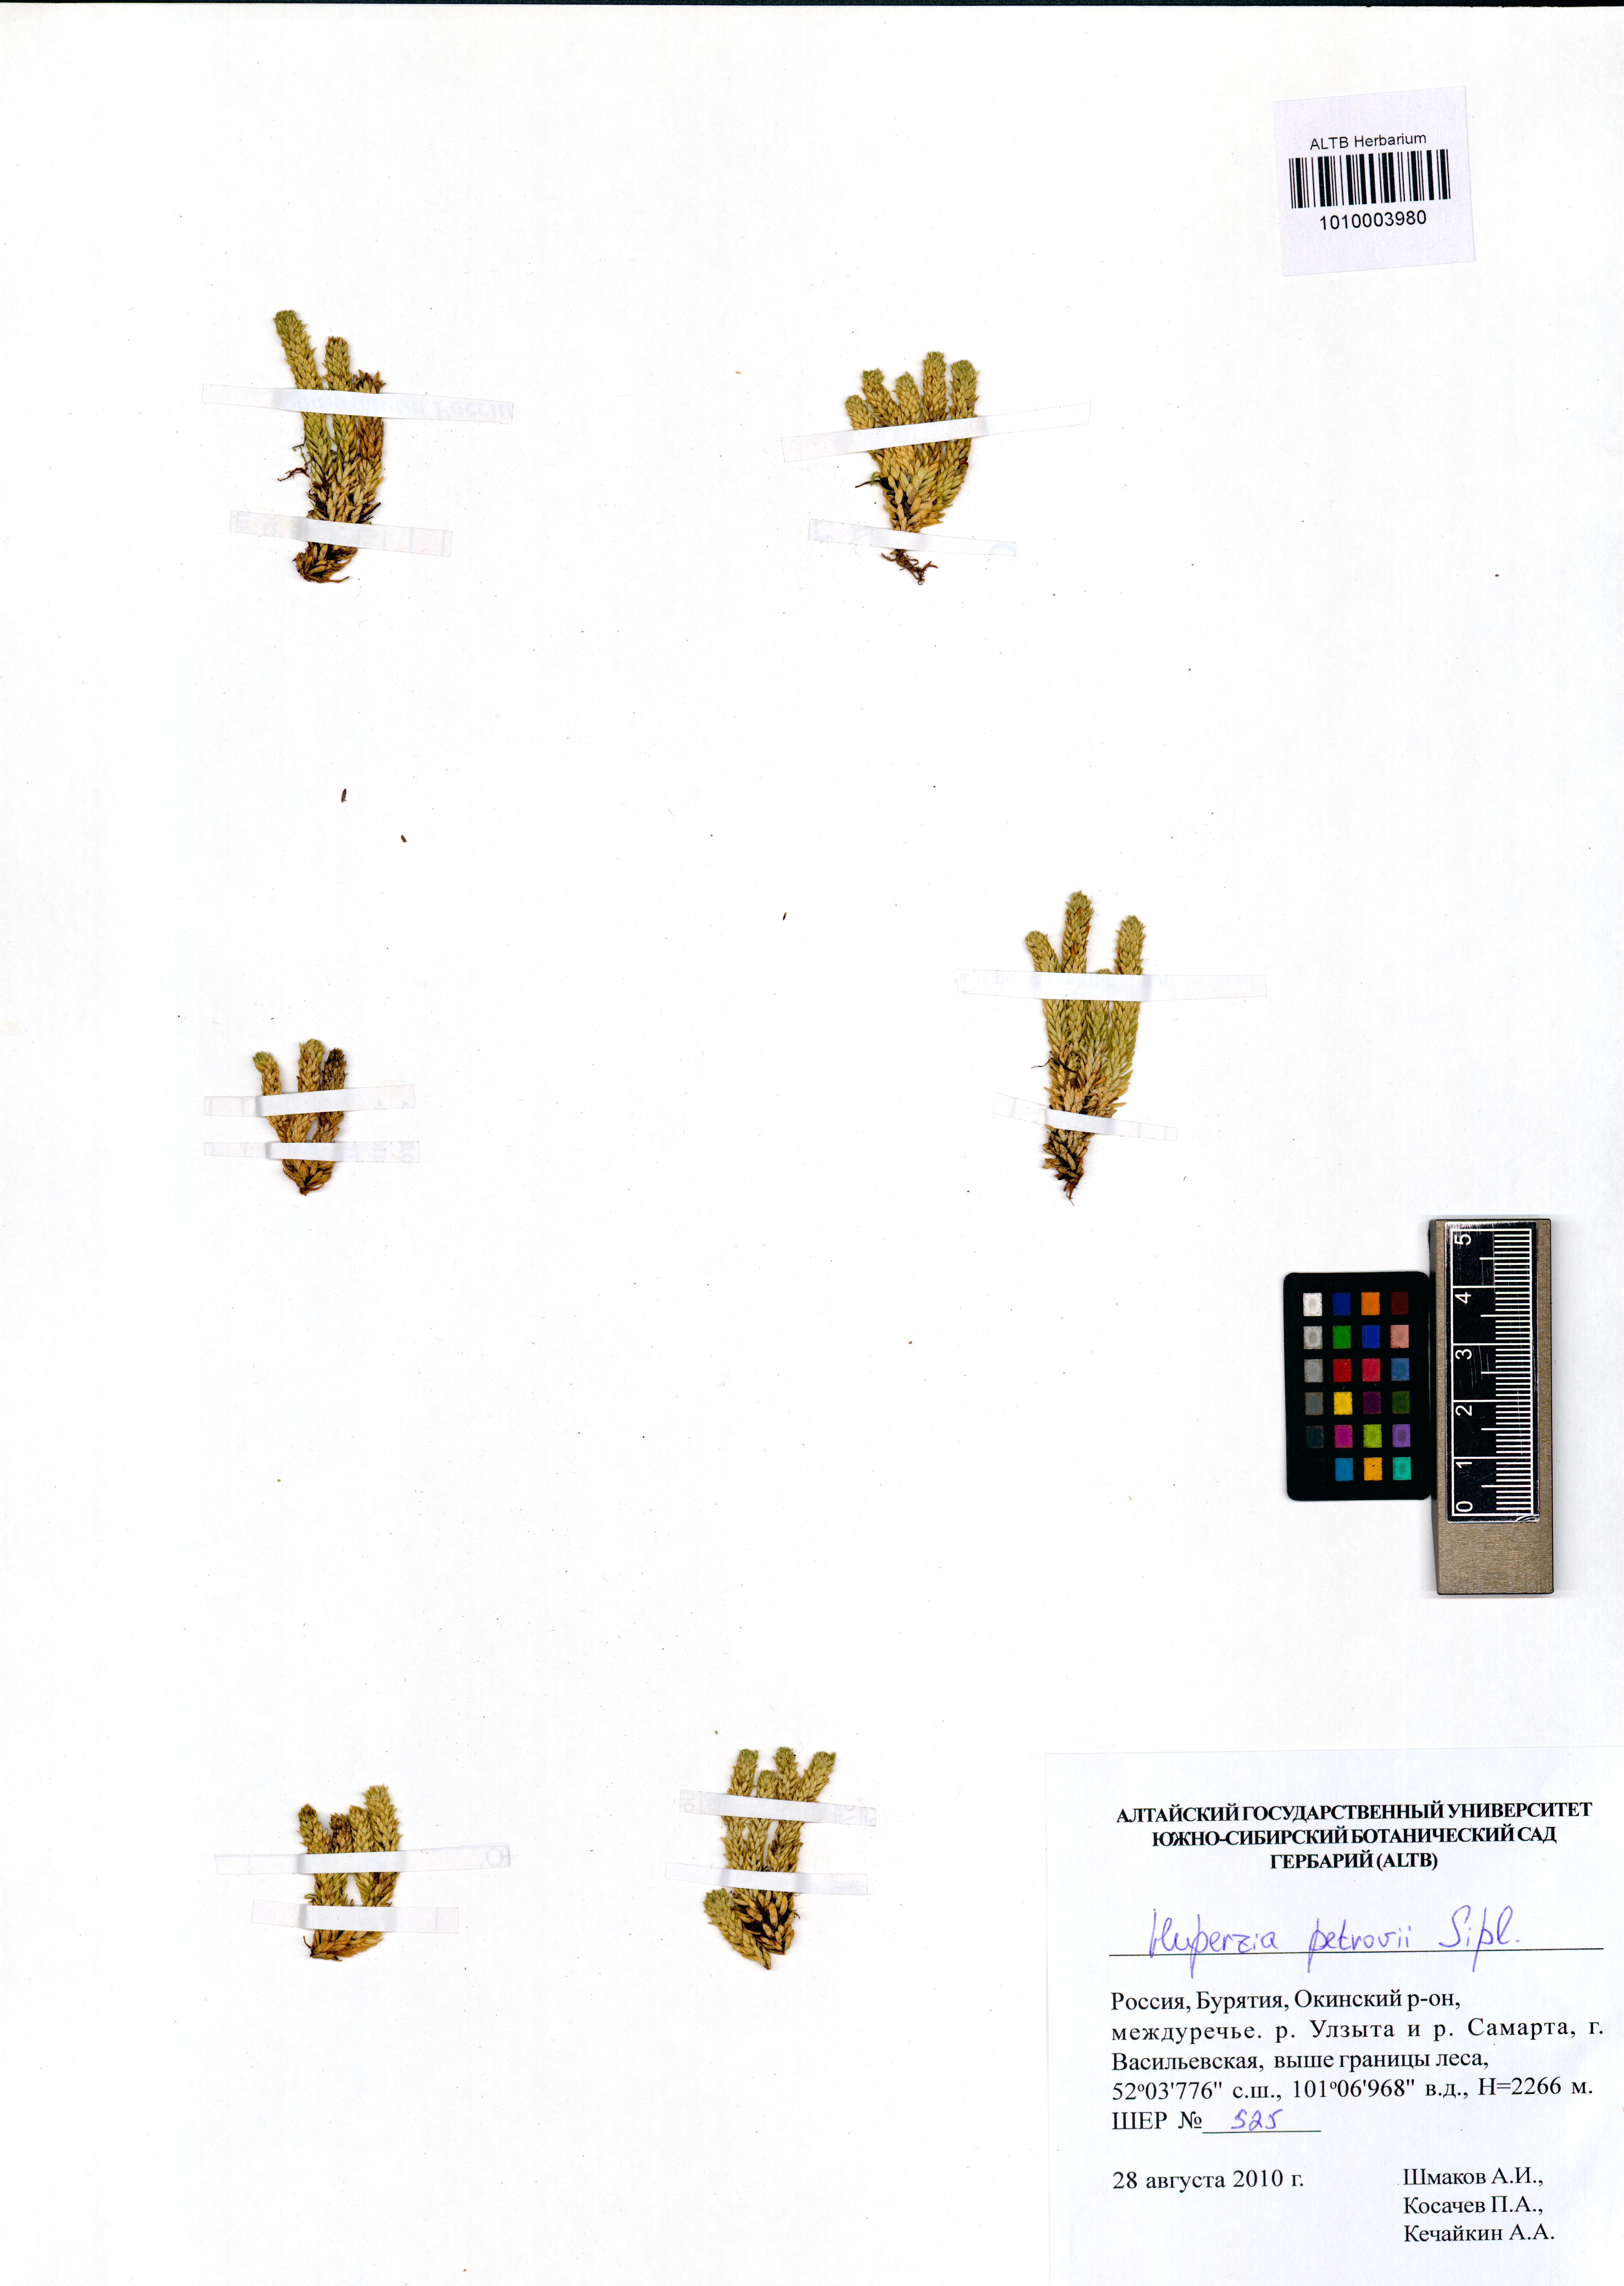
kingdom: Plantae
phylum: Tracheophyta
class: Lycopodiopsida
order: Lycopodiales
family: Lycopodiaceae
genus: Huperzia
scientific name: Huperzia selago
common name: Northern firmoss
